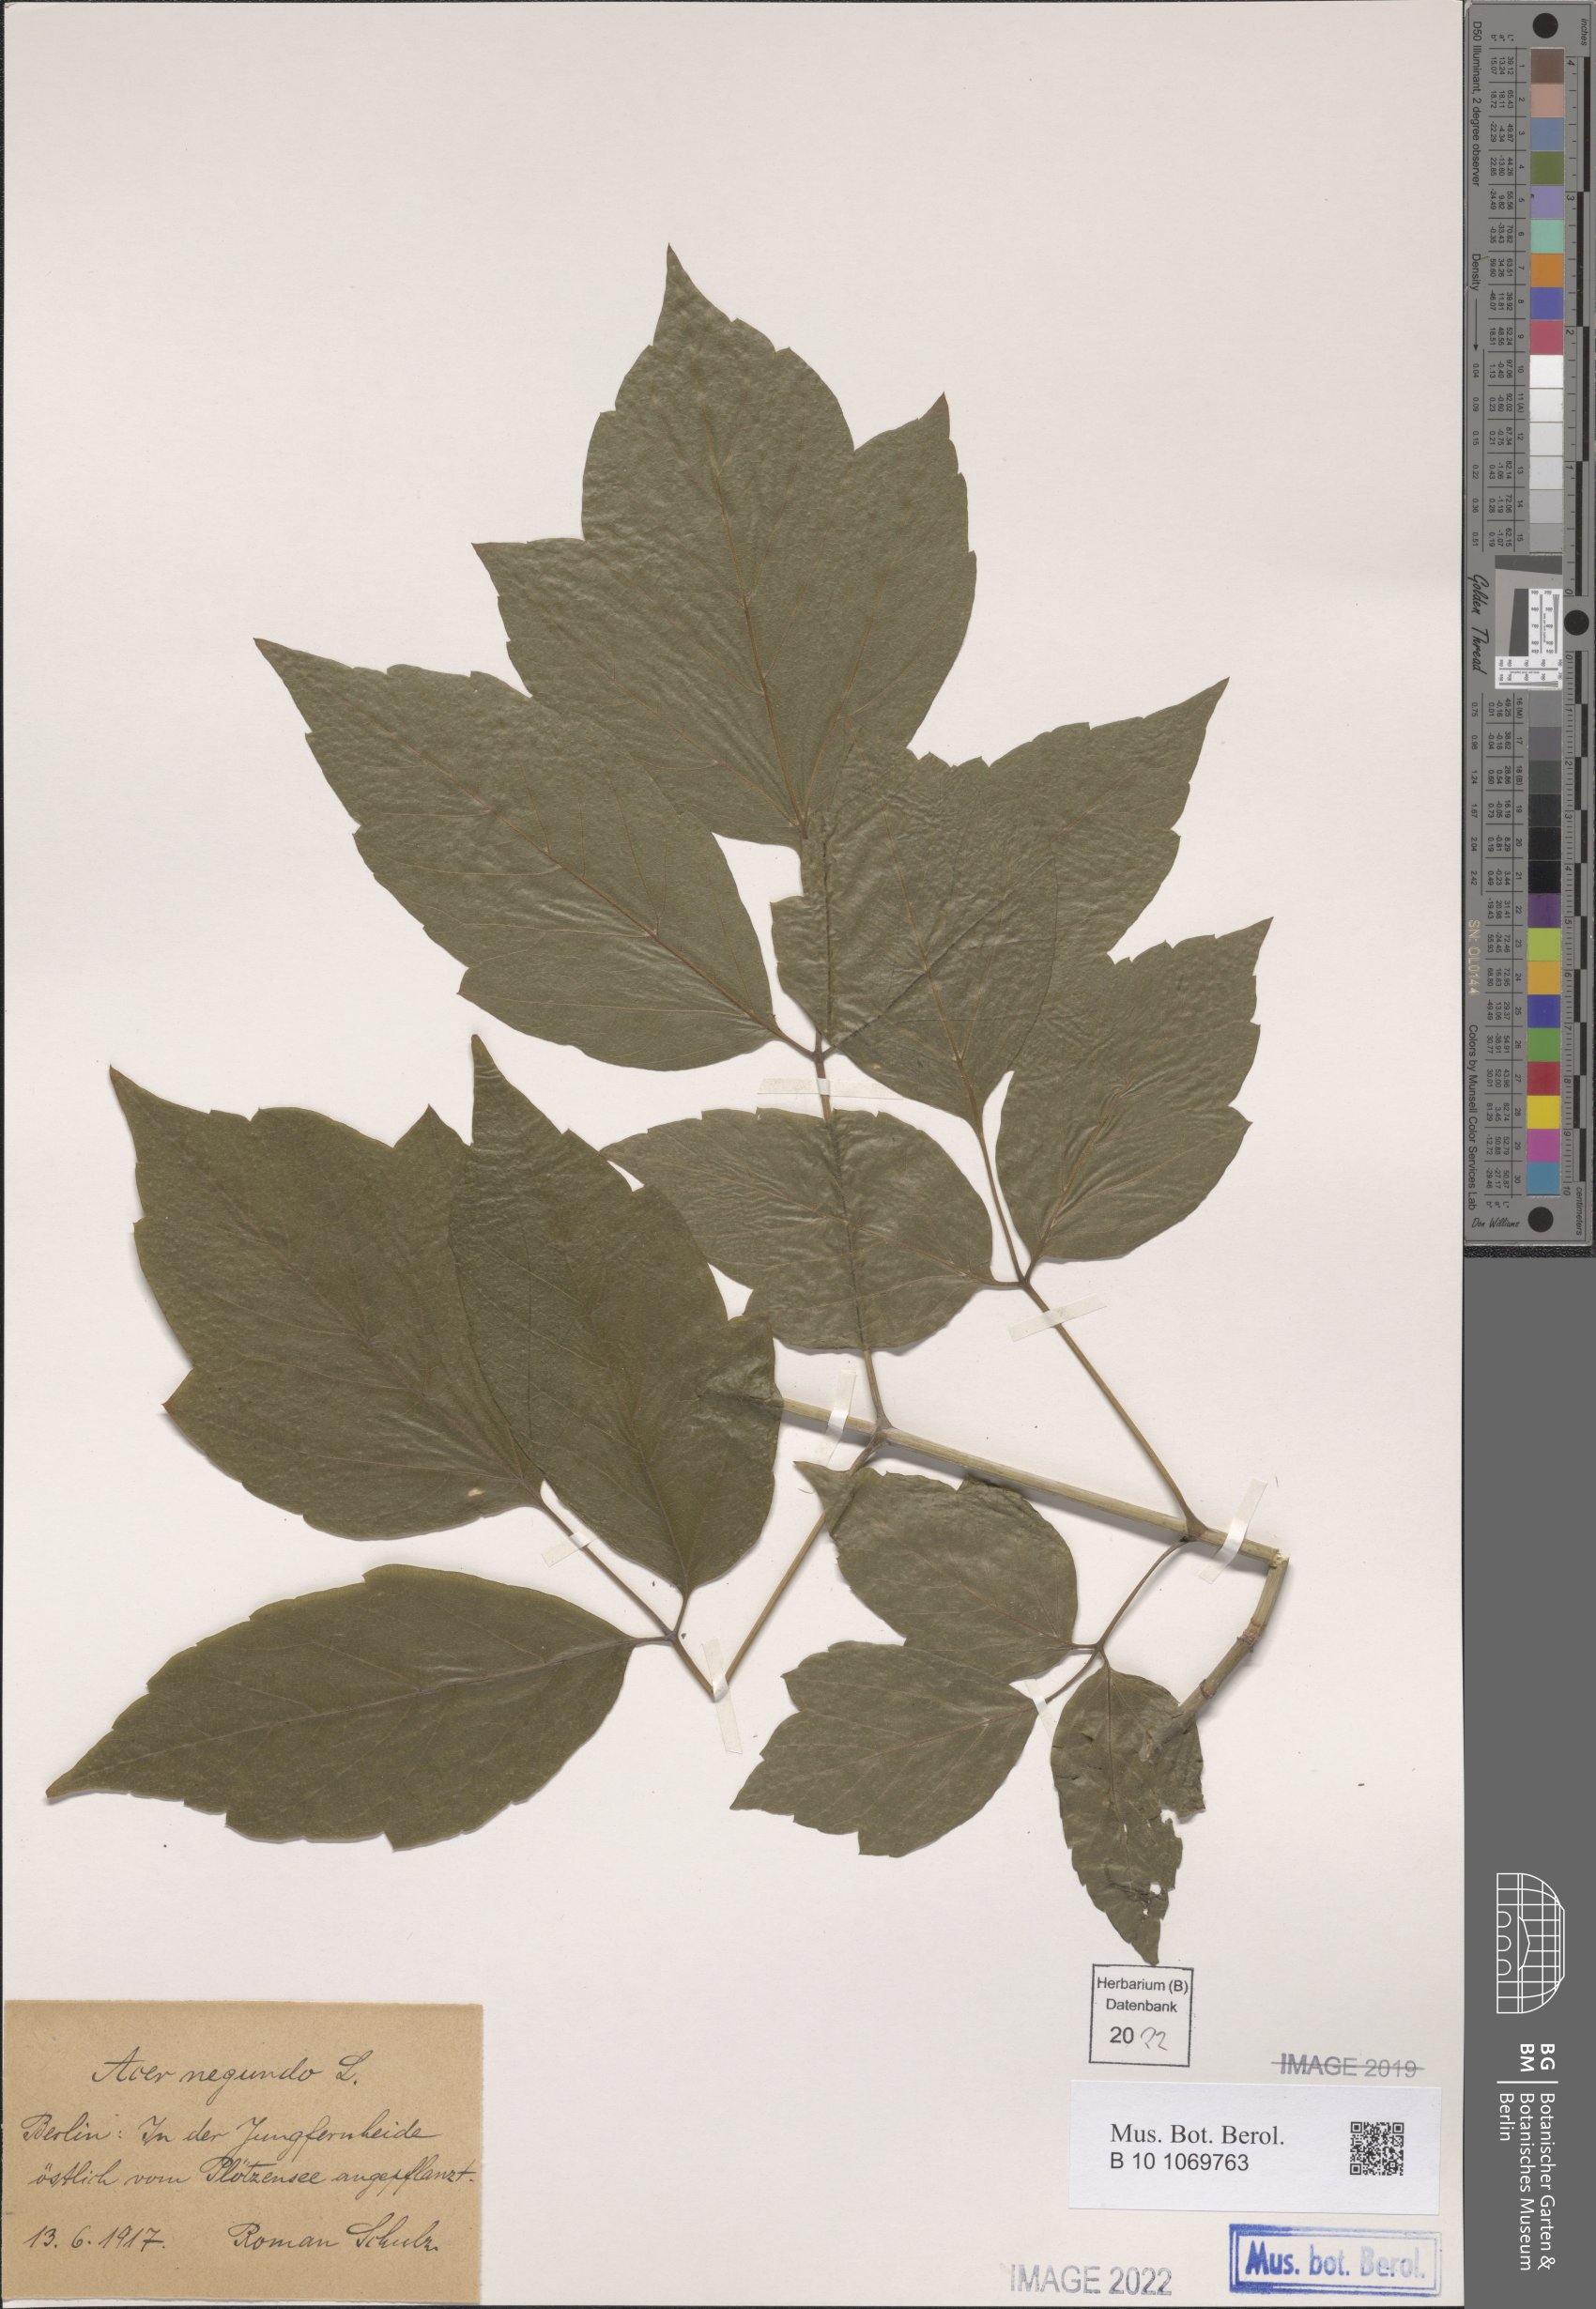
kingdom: Plantae
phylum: Tracheophyta
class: Magnoliopsida
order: Sapindales
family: Sapindaceae
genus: Acer
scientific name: Acer negundo
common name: Ashleaf maple
